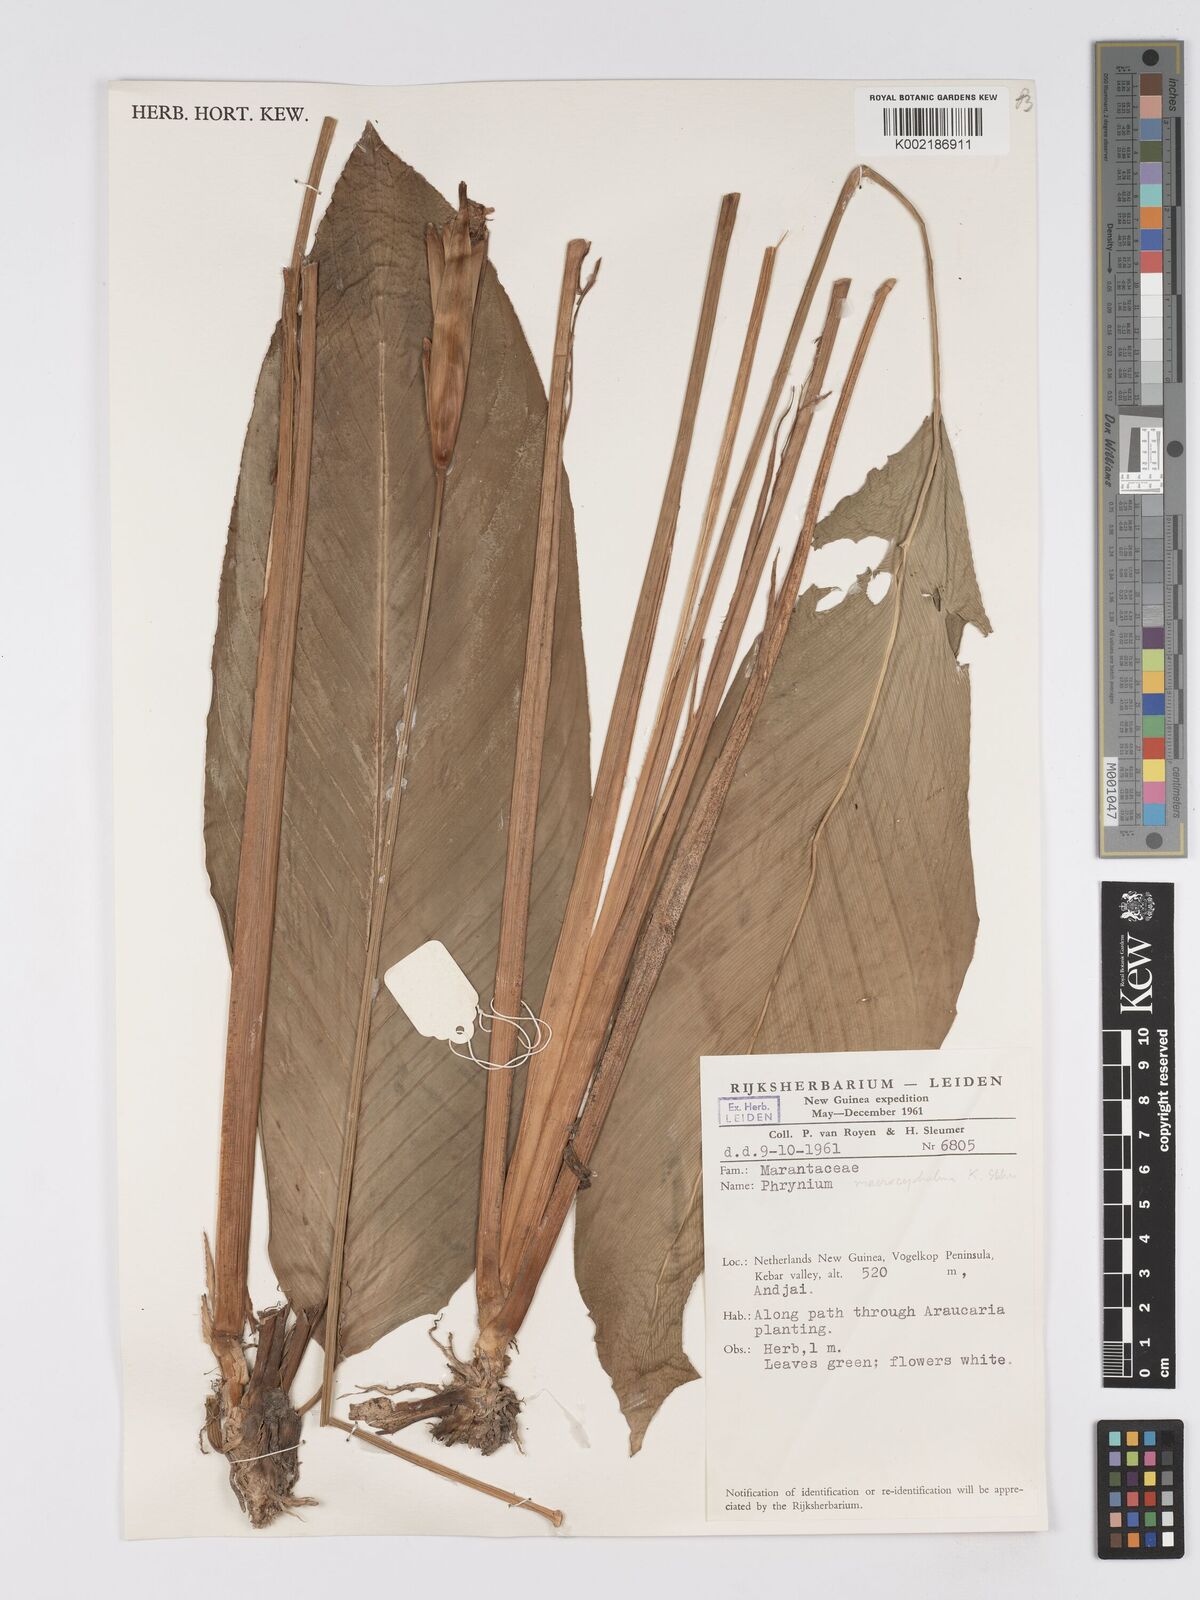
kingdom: Plantae
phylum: Tracheophyta
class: Liliopsida
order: Zingiberales
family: Marantaceae
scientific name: Marantaceae
